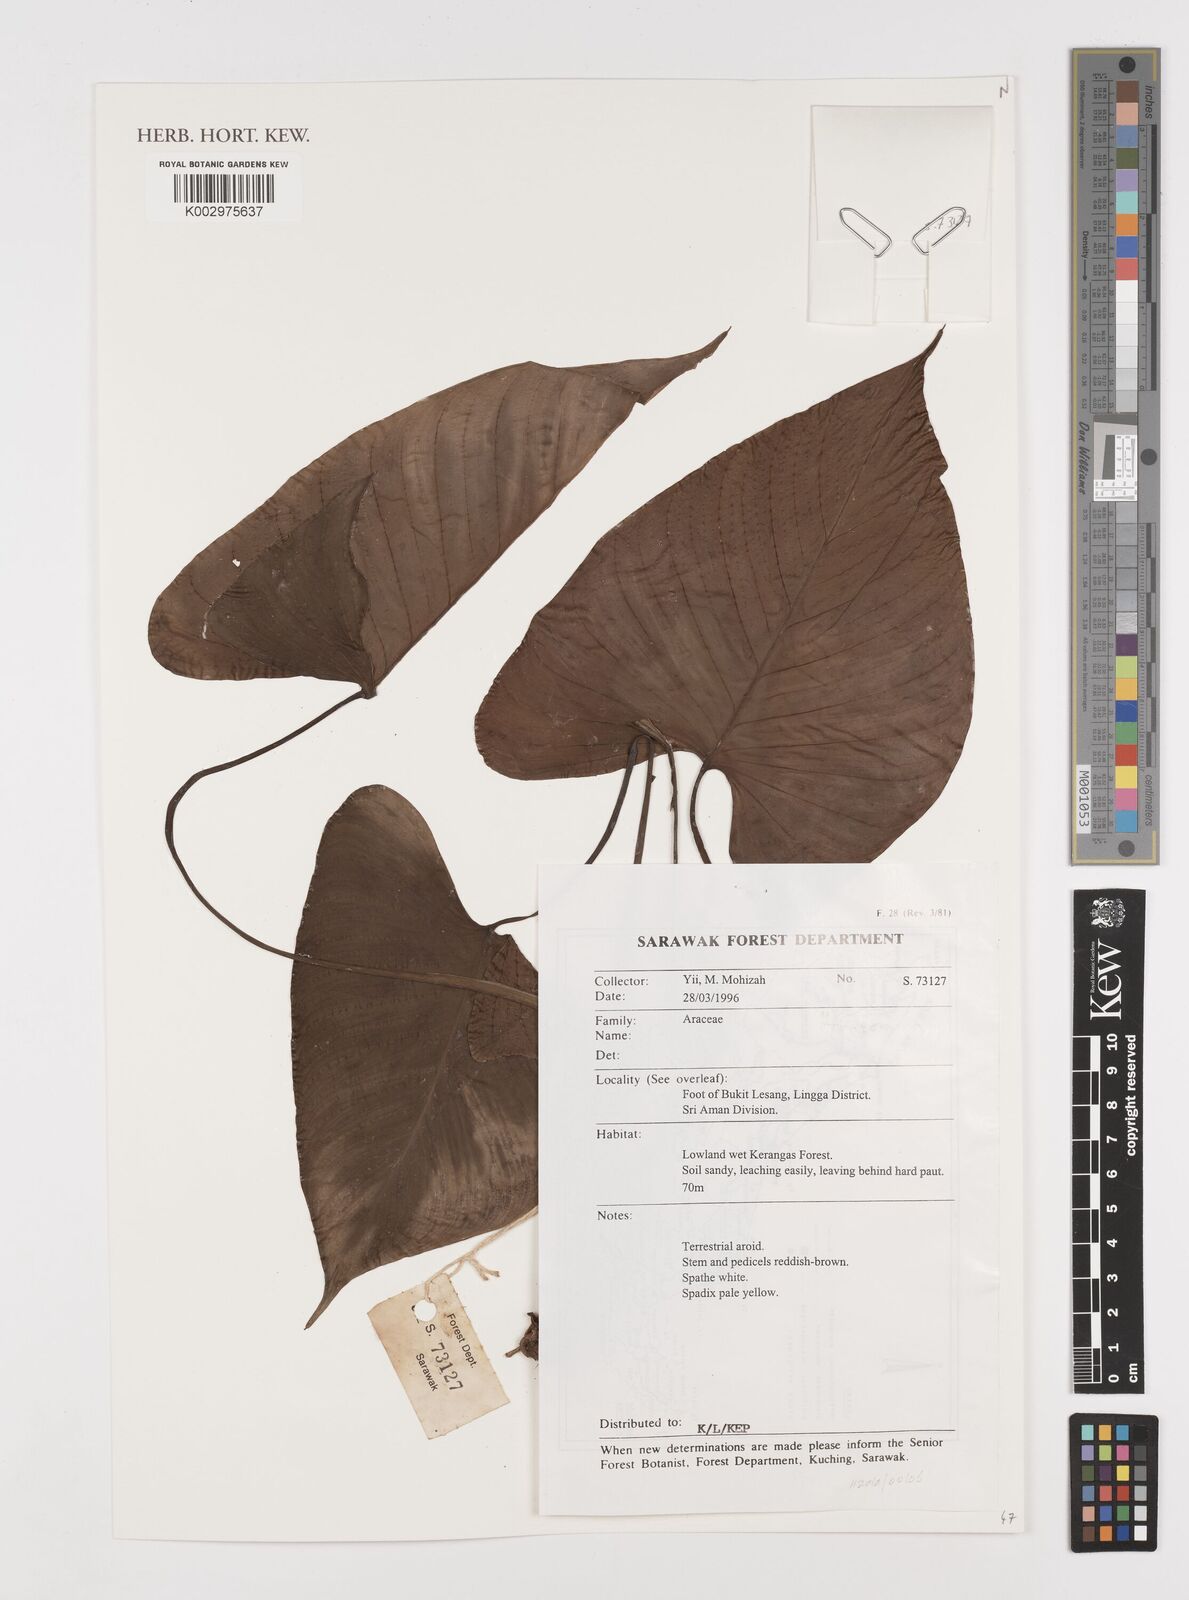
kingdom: Plantae
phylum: Tracheophyta
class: Liliopsida
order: Alismatales
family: Araceae
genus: Homalomena
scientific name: Homalomena
